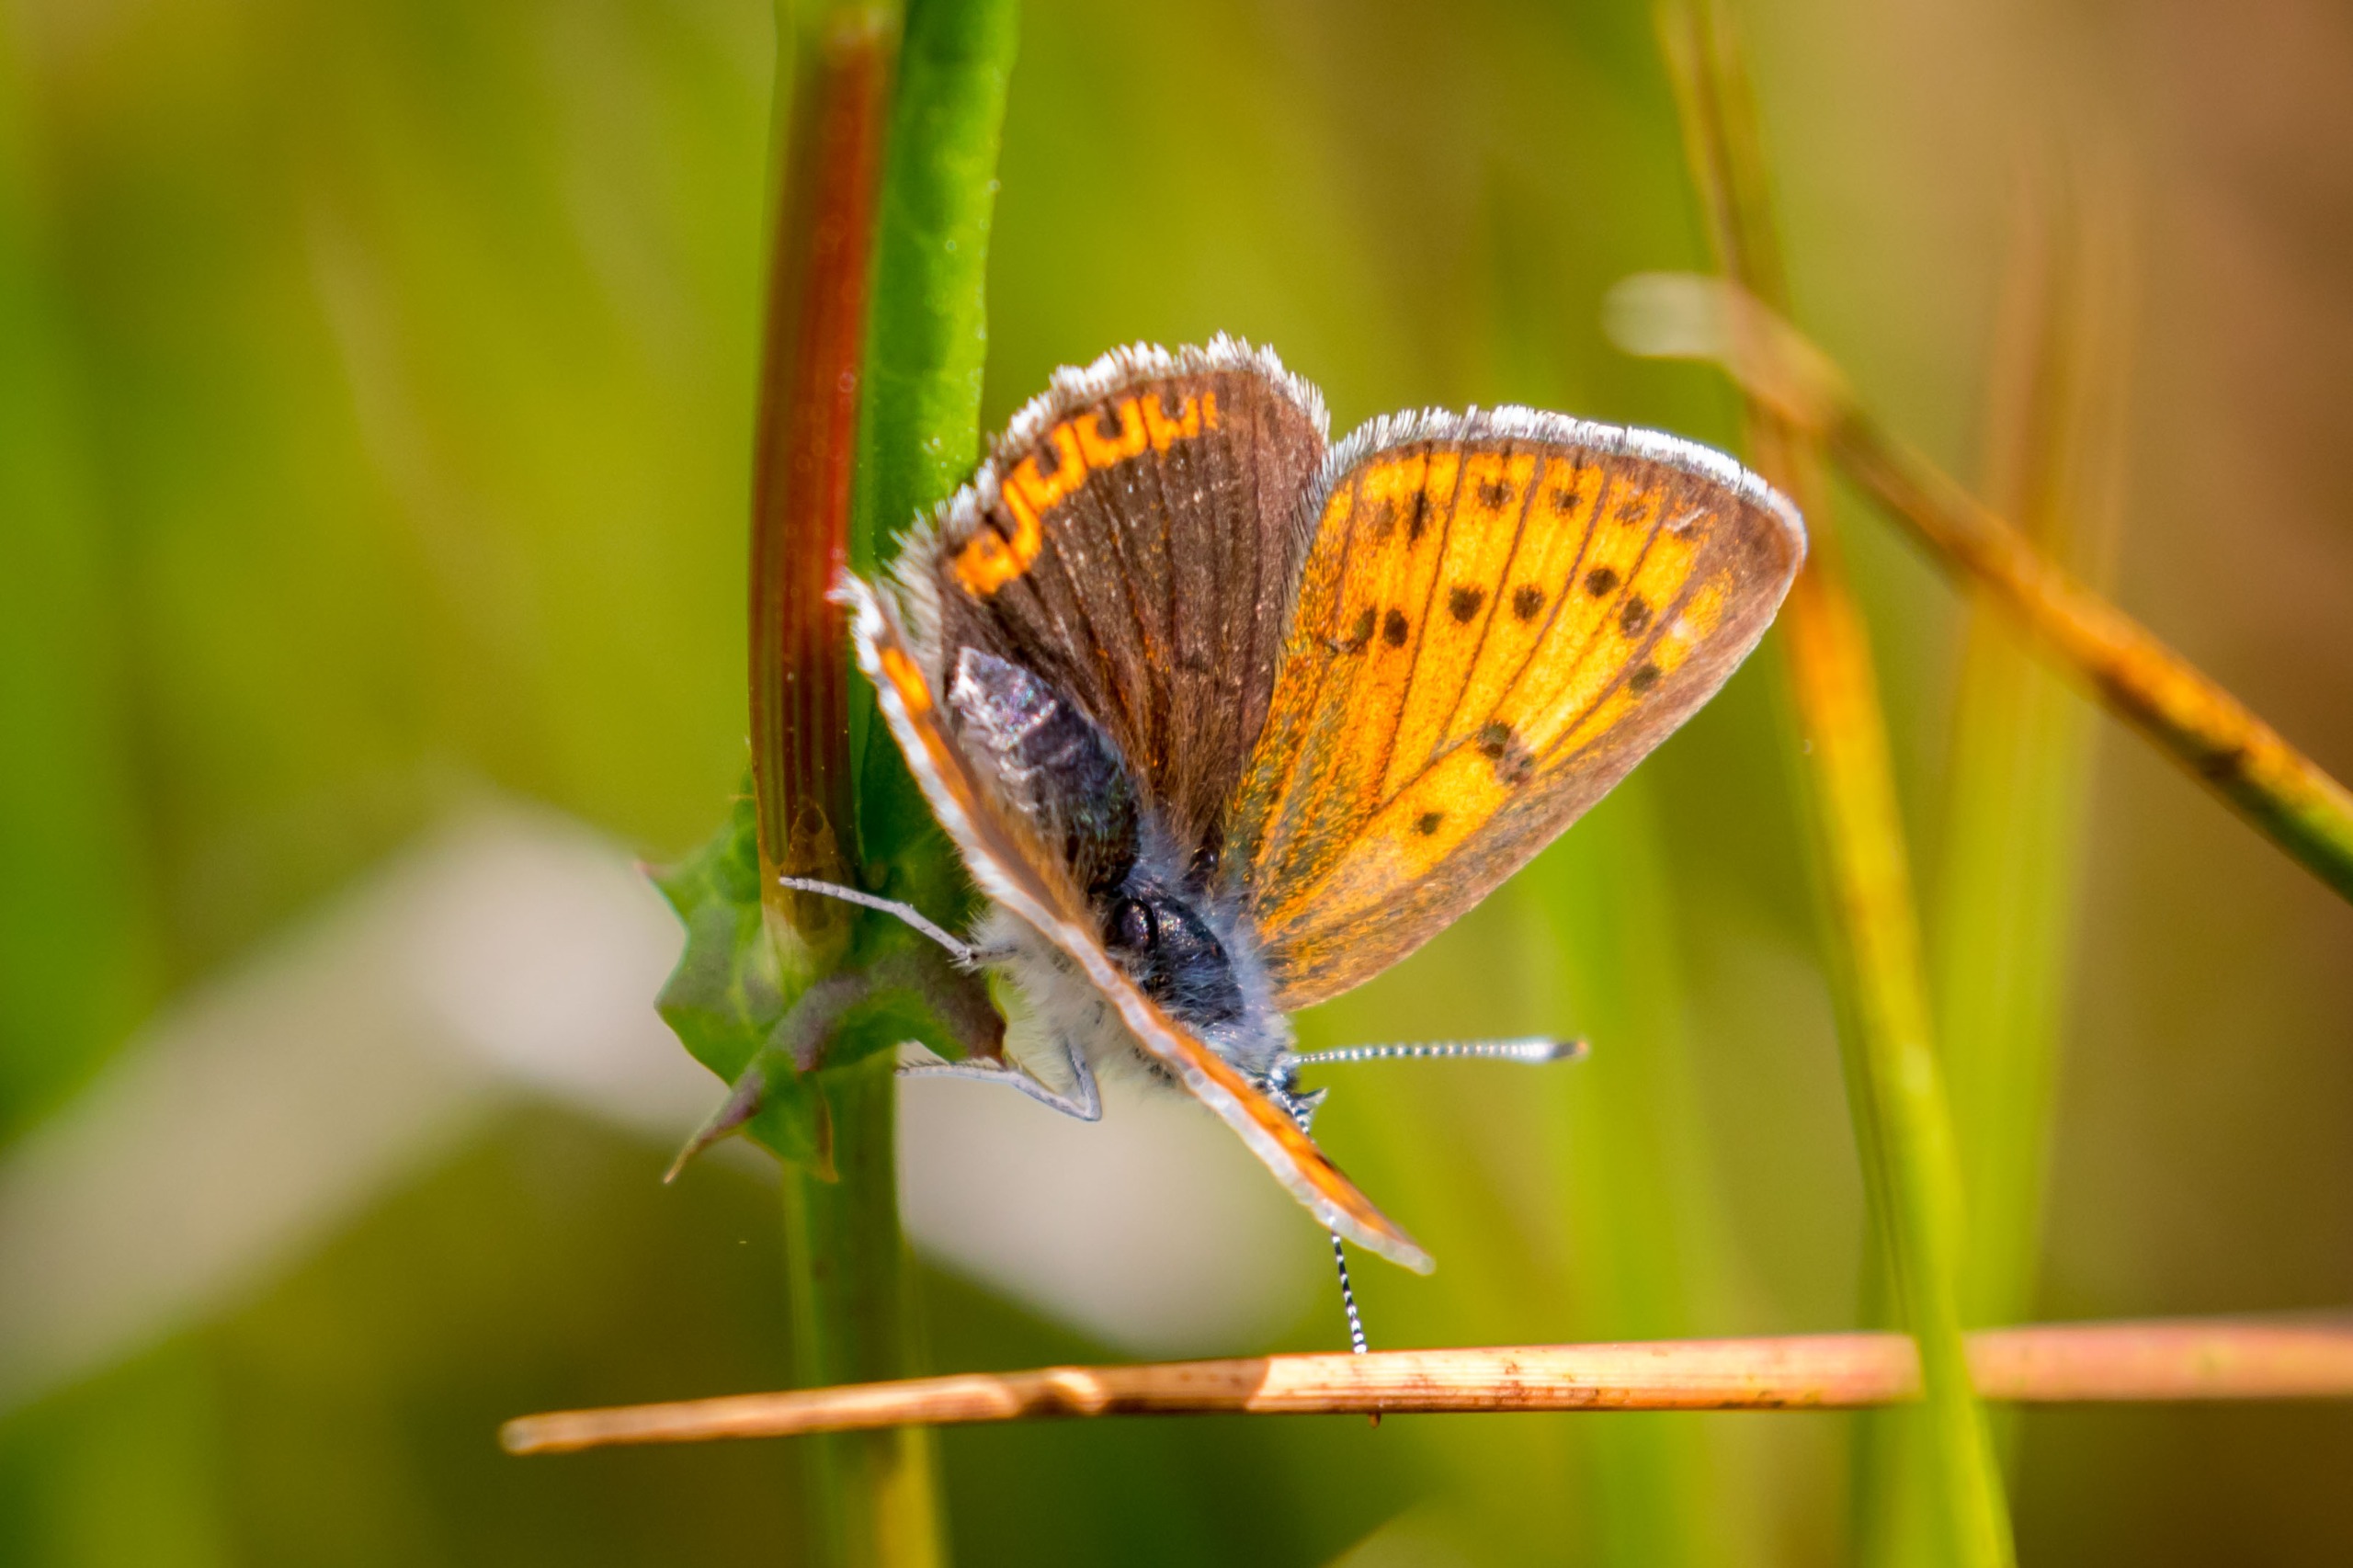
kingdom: Animalia
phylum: Arthropoda
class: Insecta
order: Lepidoptera
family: Lycaenidae
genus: Lycaena
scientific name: Lycaena phlaeas
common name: Lille ildfugl
